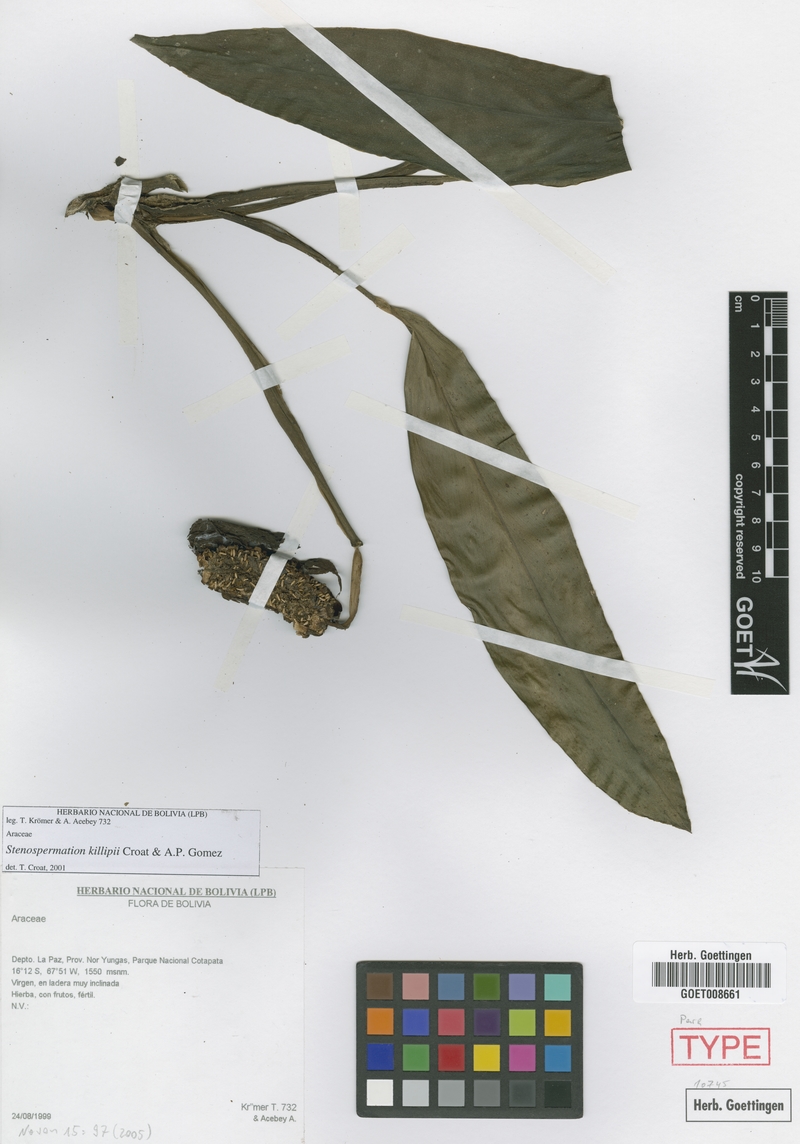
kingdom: Plantae
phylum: Tracheophyta
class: Liliopsida
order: Alismatales
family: Araceae
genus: Stenospermation
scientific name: Stenospermation zeacarpium
